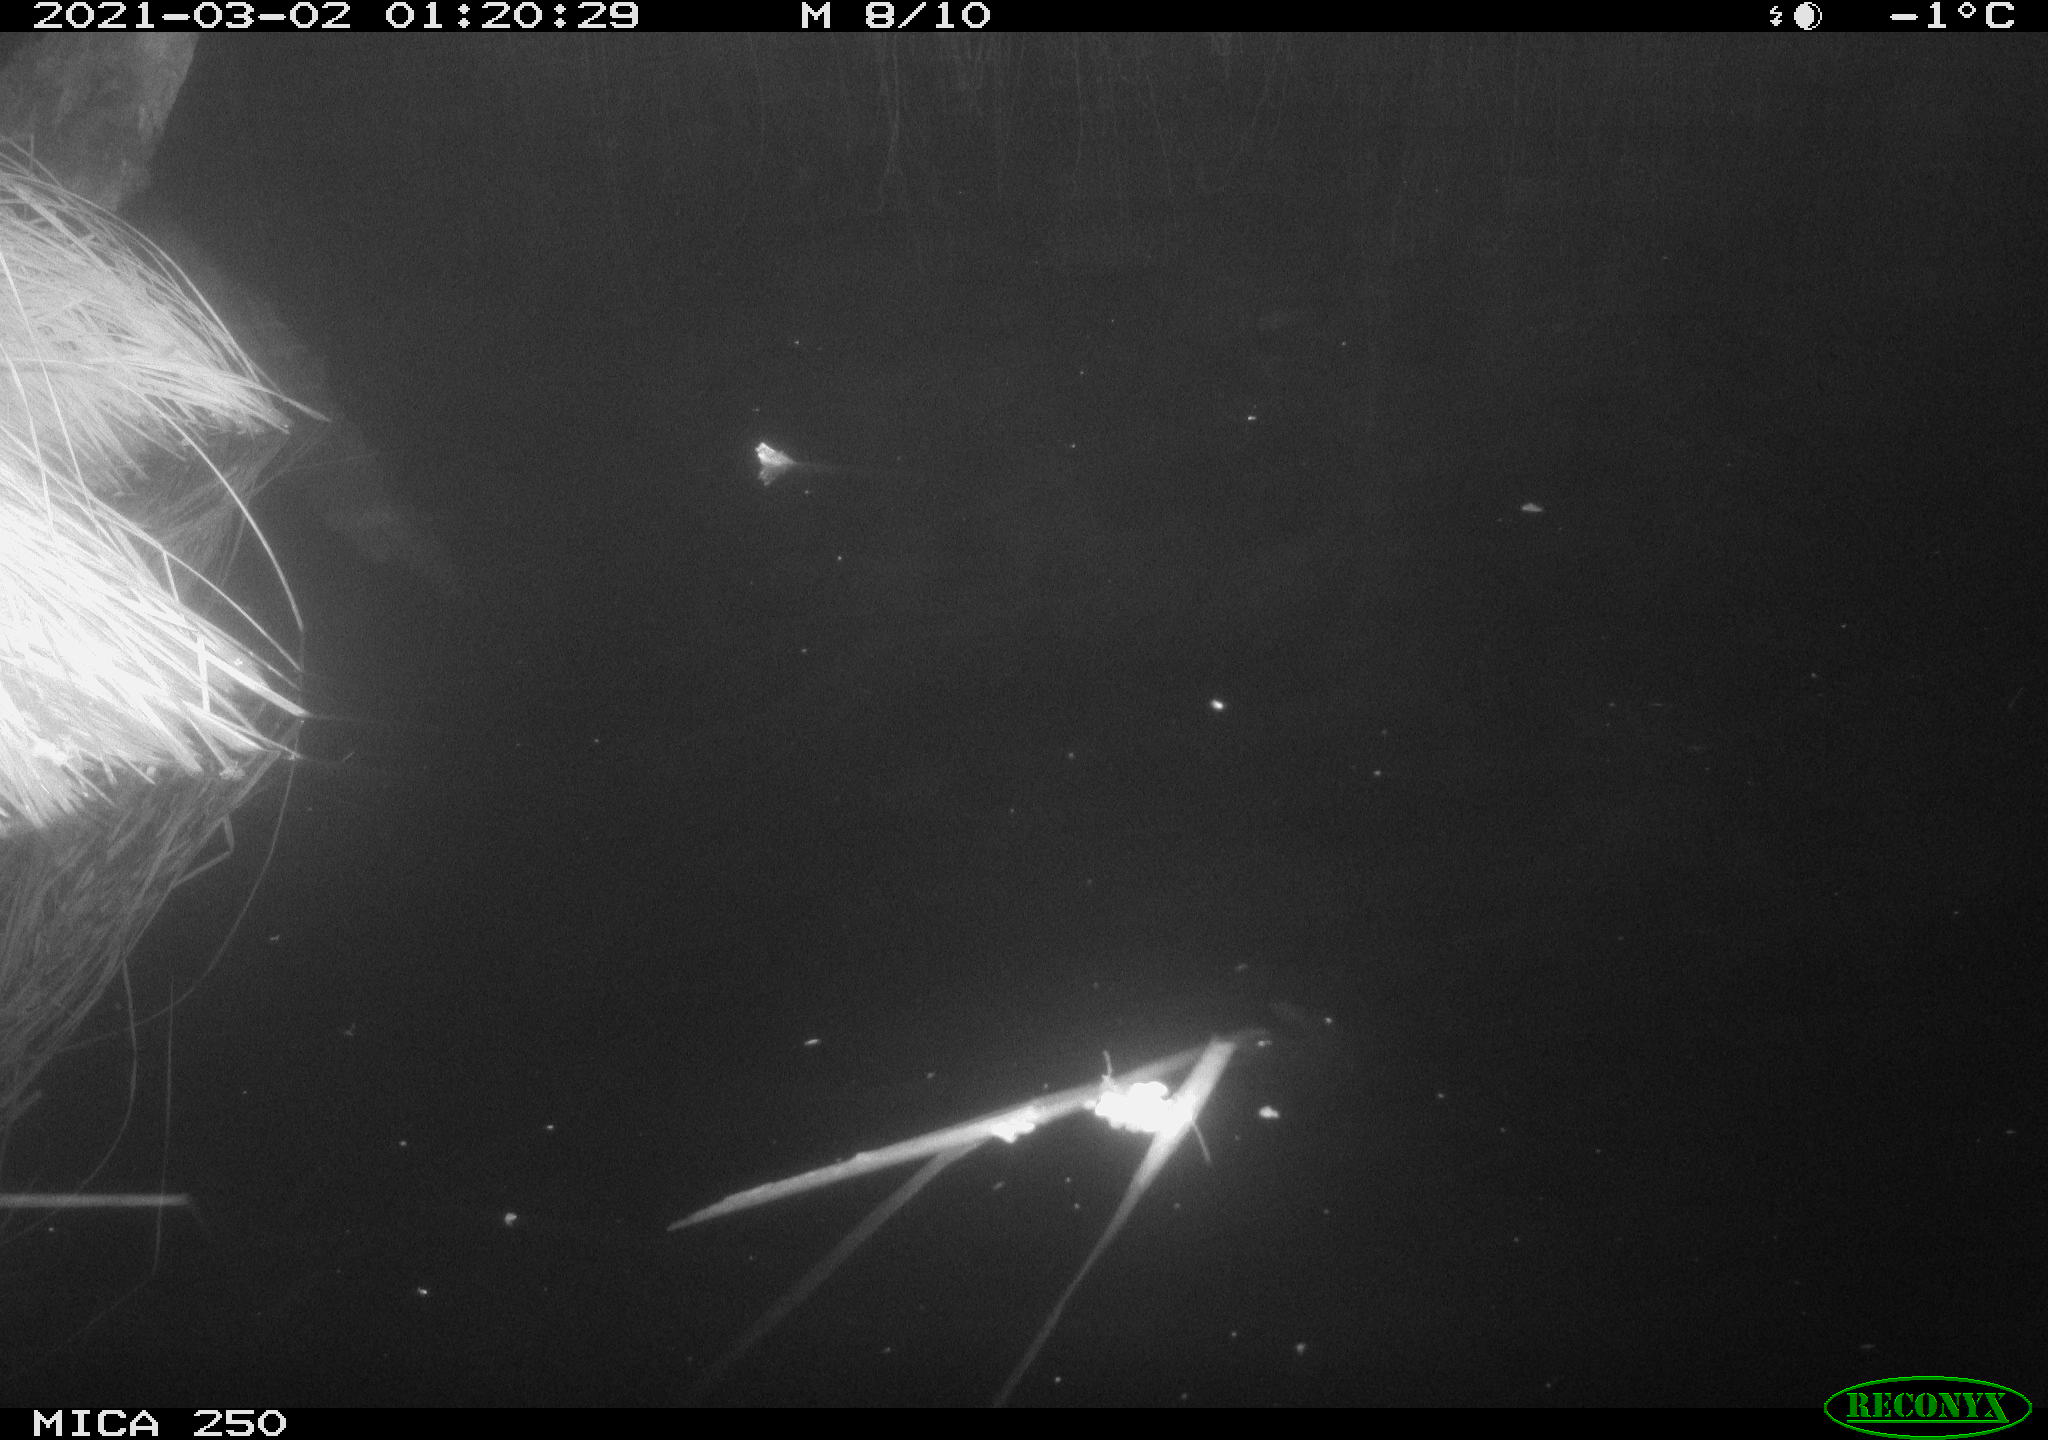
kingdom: Animalia
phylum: Chordata
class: Aves
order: Anseriformes
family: Anatidae
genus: Anas
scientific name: Anas platyrhynchos
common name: Mallard
